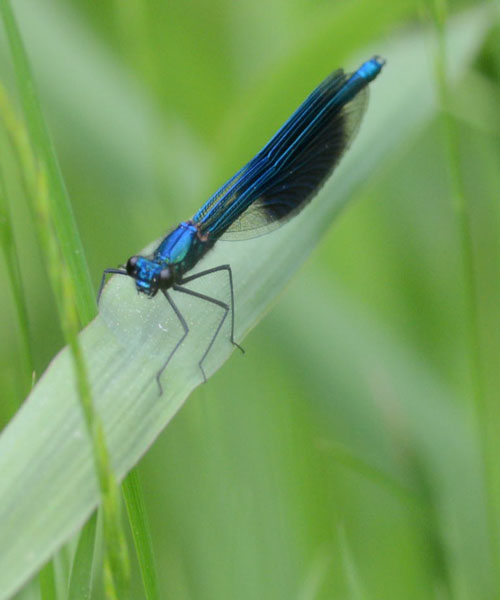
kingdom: Animalia
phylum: Arthropoda
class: Insecta
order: Odonata
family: Calopterygidae
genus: Calopteryx
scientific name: Calopteryx splendens
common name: Banded demoiselle
